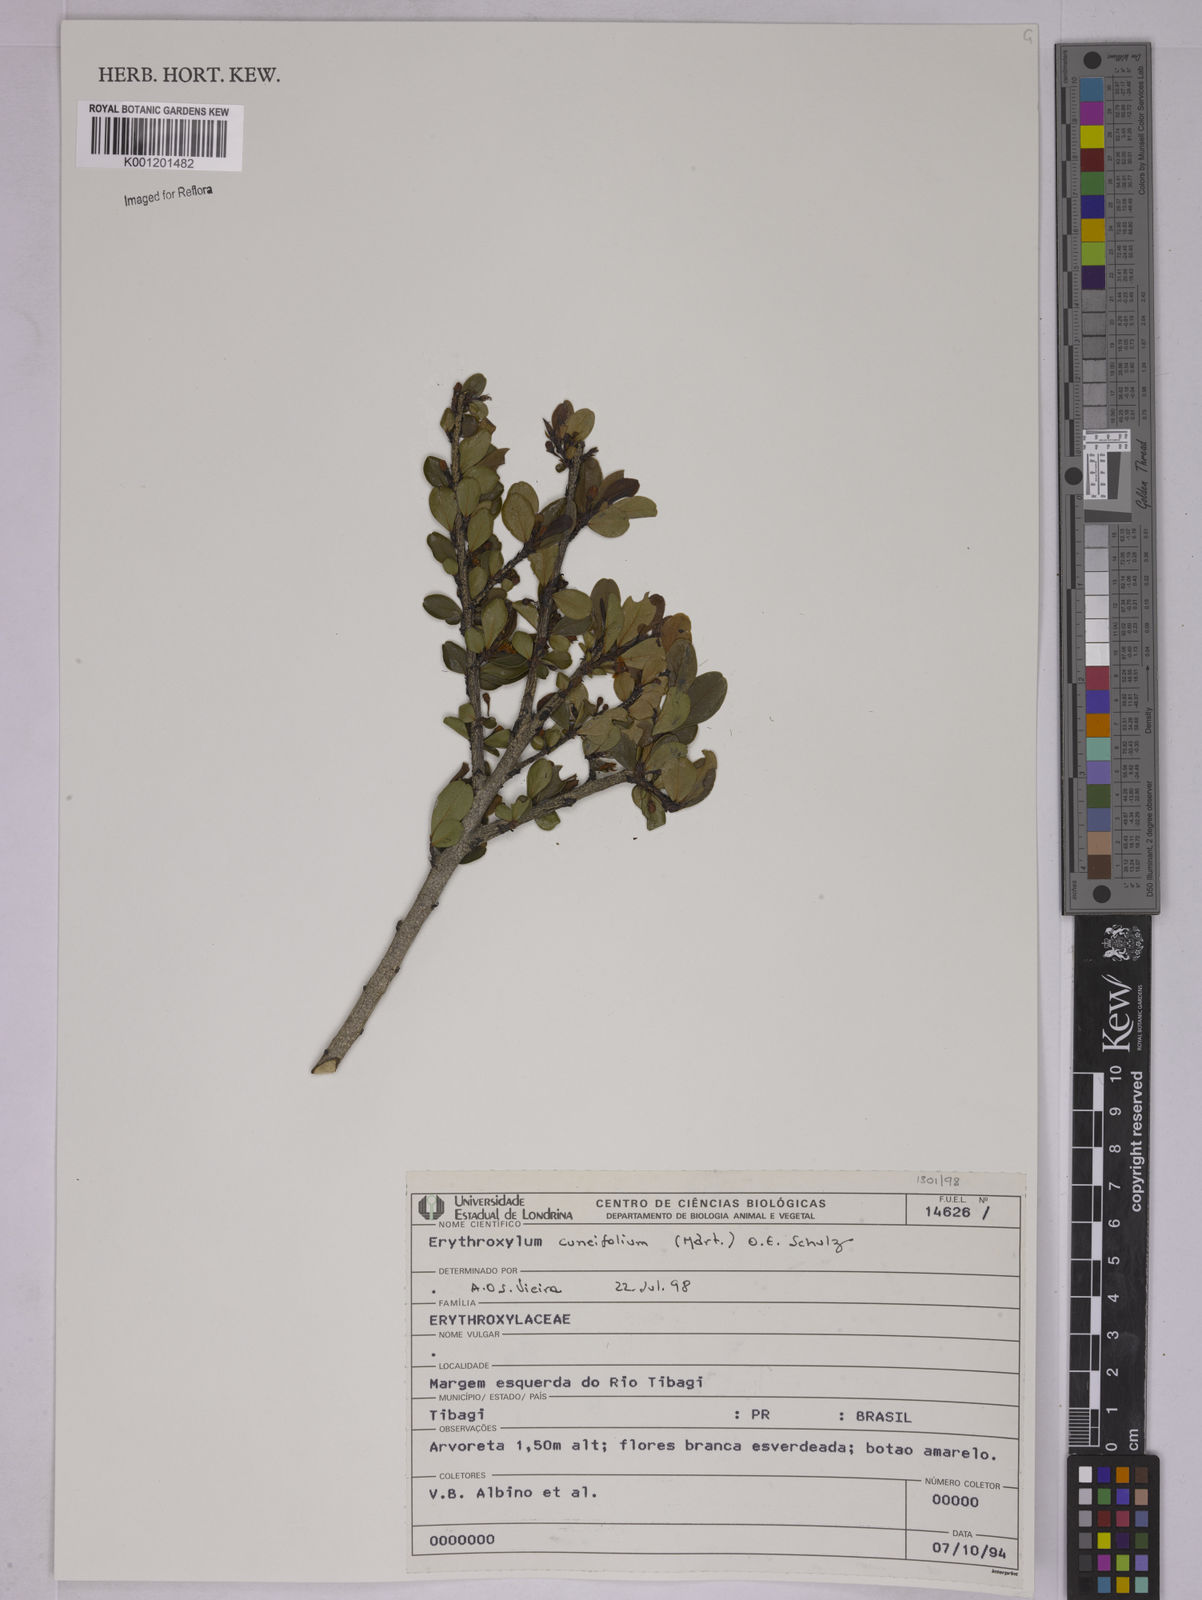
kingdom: Plantae
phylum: Tracheophyta
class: Magnoliopsida
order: Malpighiales
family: Erythroxylaceae
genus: Erythroxylum
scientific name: Erythroxylum cuneifolium
